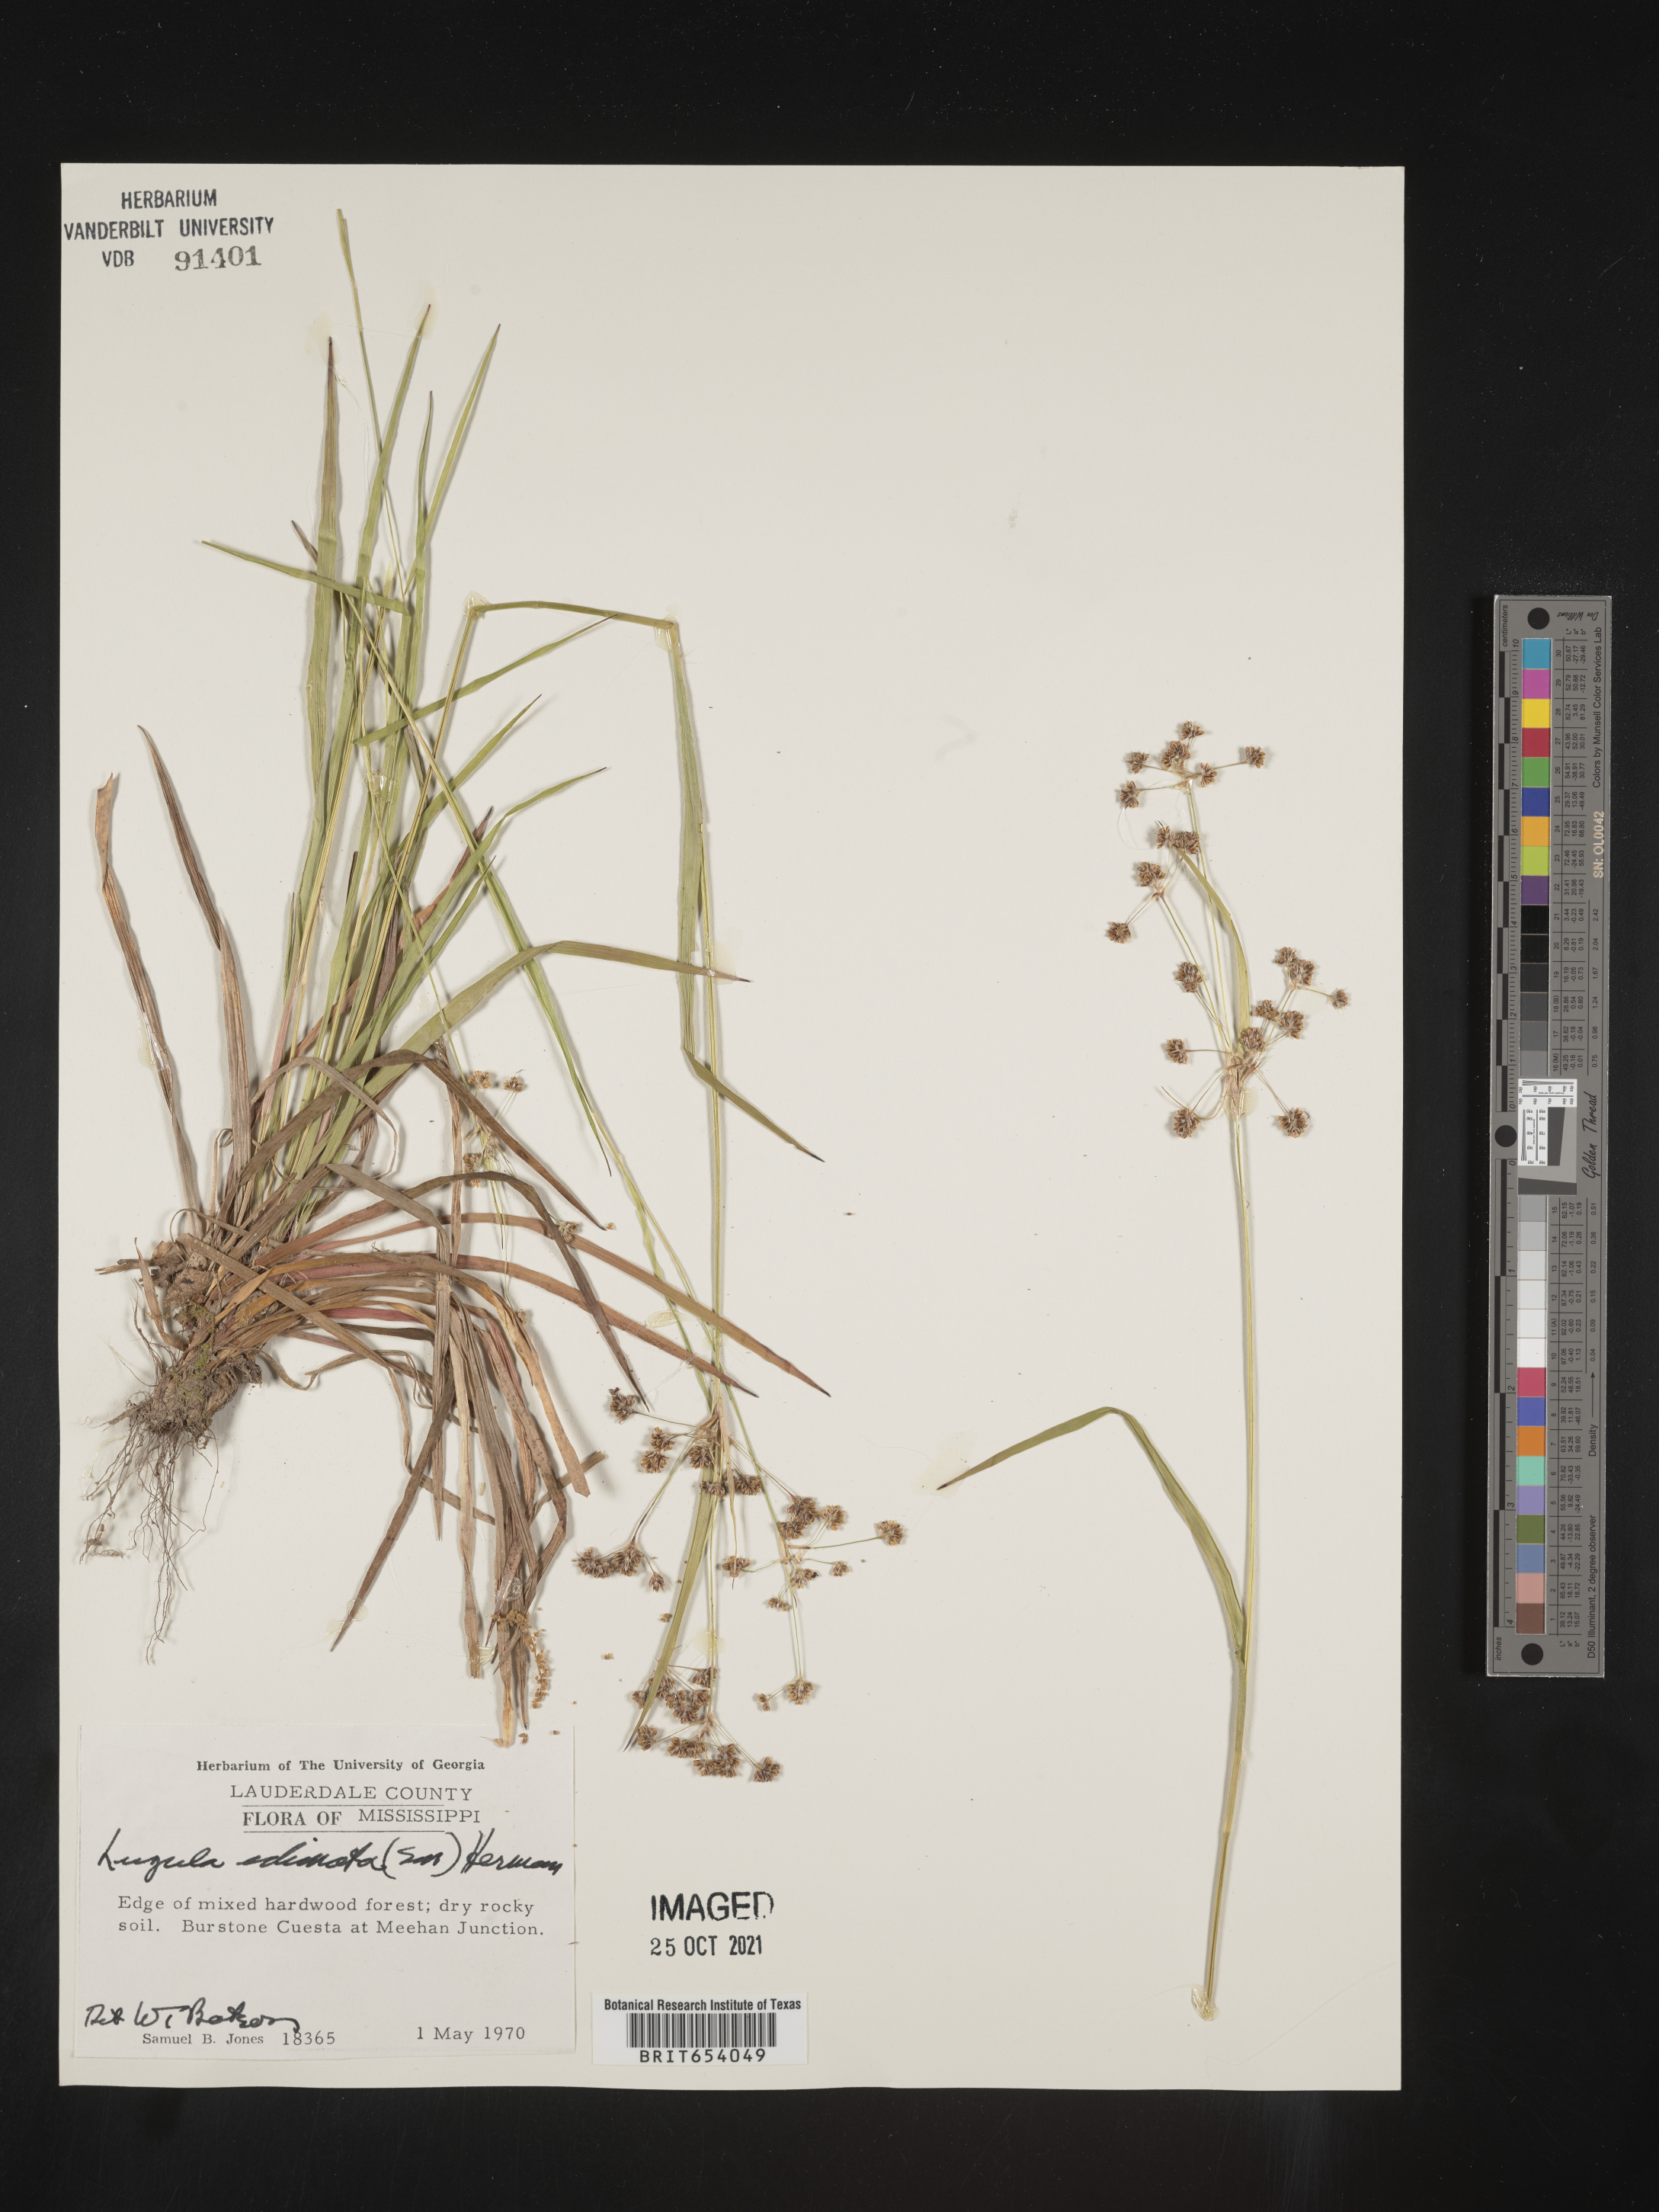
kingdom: Plantae
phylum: Tracheophyta
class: Liliopsida
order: Poales
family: Juncaceae
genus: Luzula
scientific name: Luzula echinata
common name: Hedgehog woodrush
